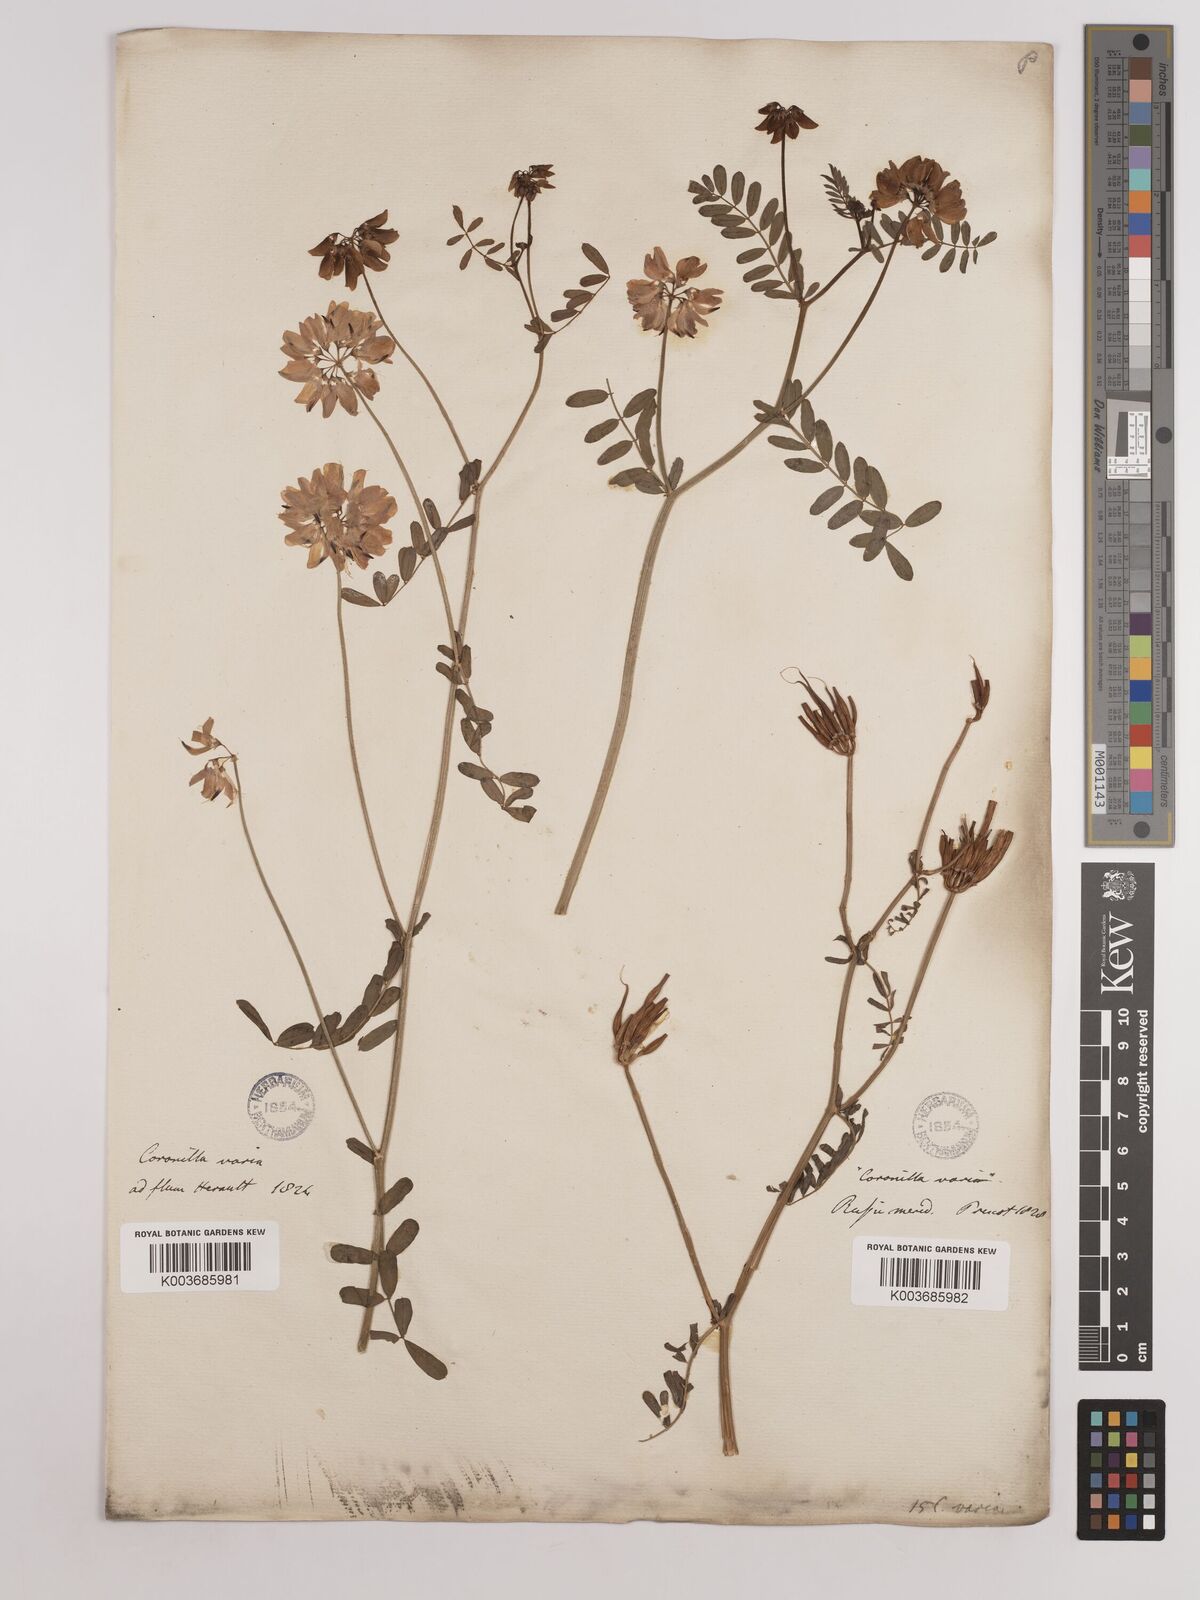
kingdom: Plantae
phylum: Tracheophyta
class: Magnoliopsida
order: Fabales
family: Fabaceae
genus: Coronilla
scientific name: Coronilla varia
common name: Crownvetch
